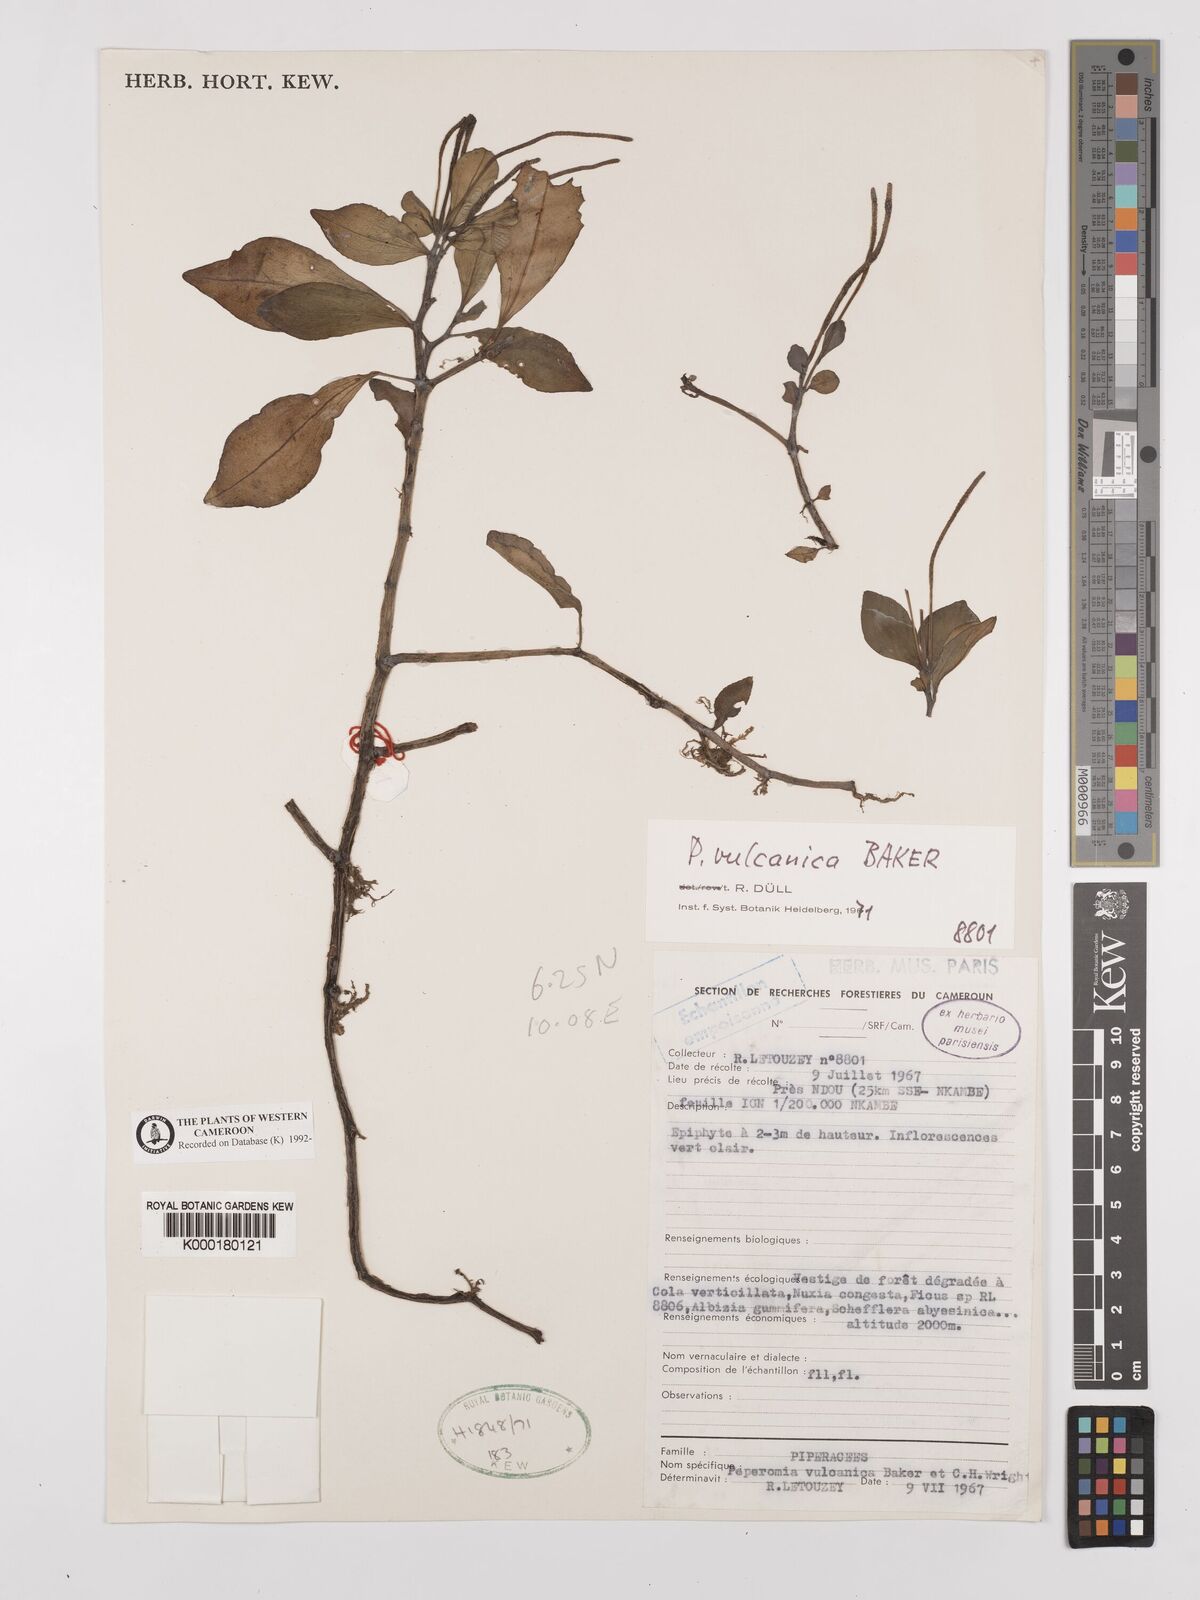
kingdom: Plantae
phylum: Tracheophyta
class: Magnoliopsida
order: Piperales
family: Piperaceae
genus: Peperomia
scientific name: Peperomia vulcanica
